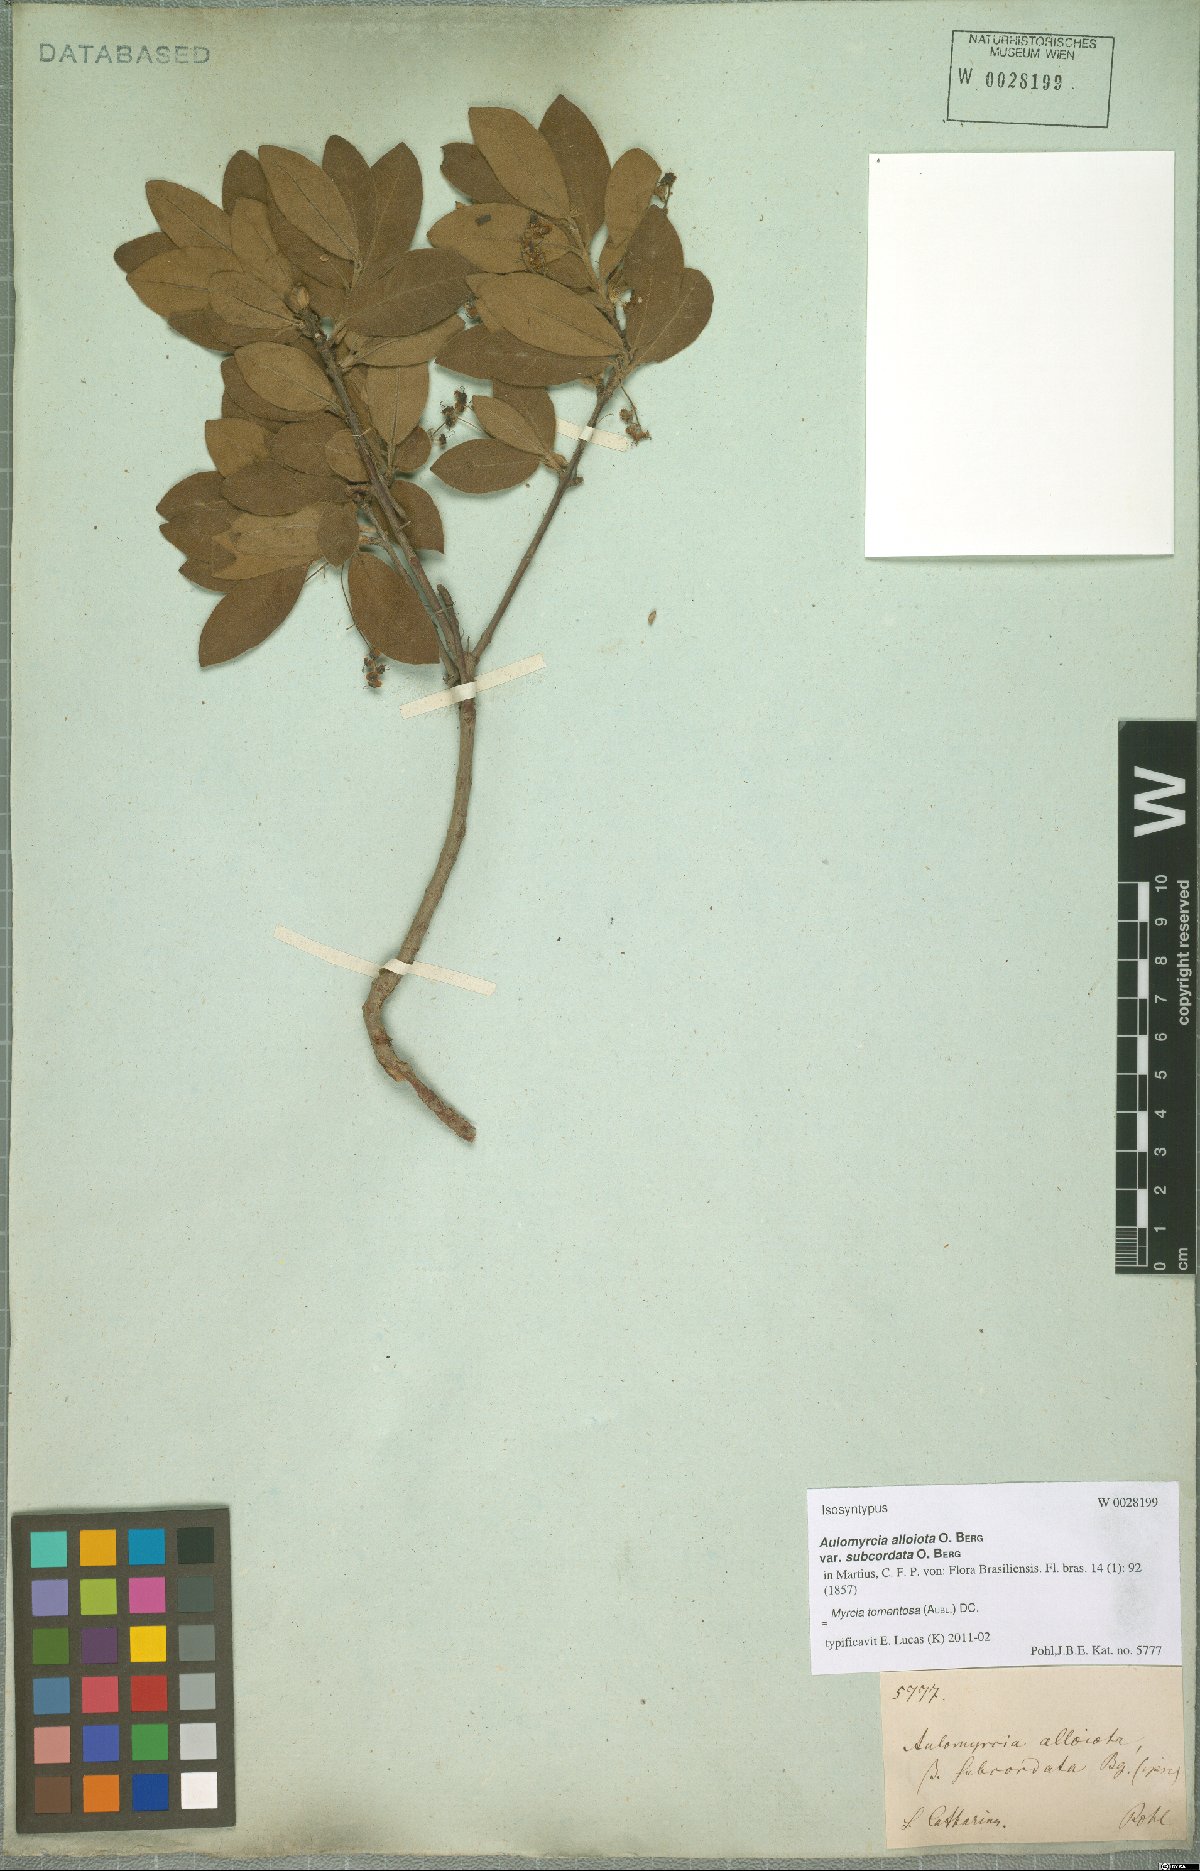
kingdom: Plantae
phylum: Tracheophyta
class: Magnoliopsida
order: Myrtales
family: Myrtaceae
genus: Myrcia
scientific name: Myrcia tomentosa
